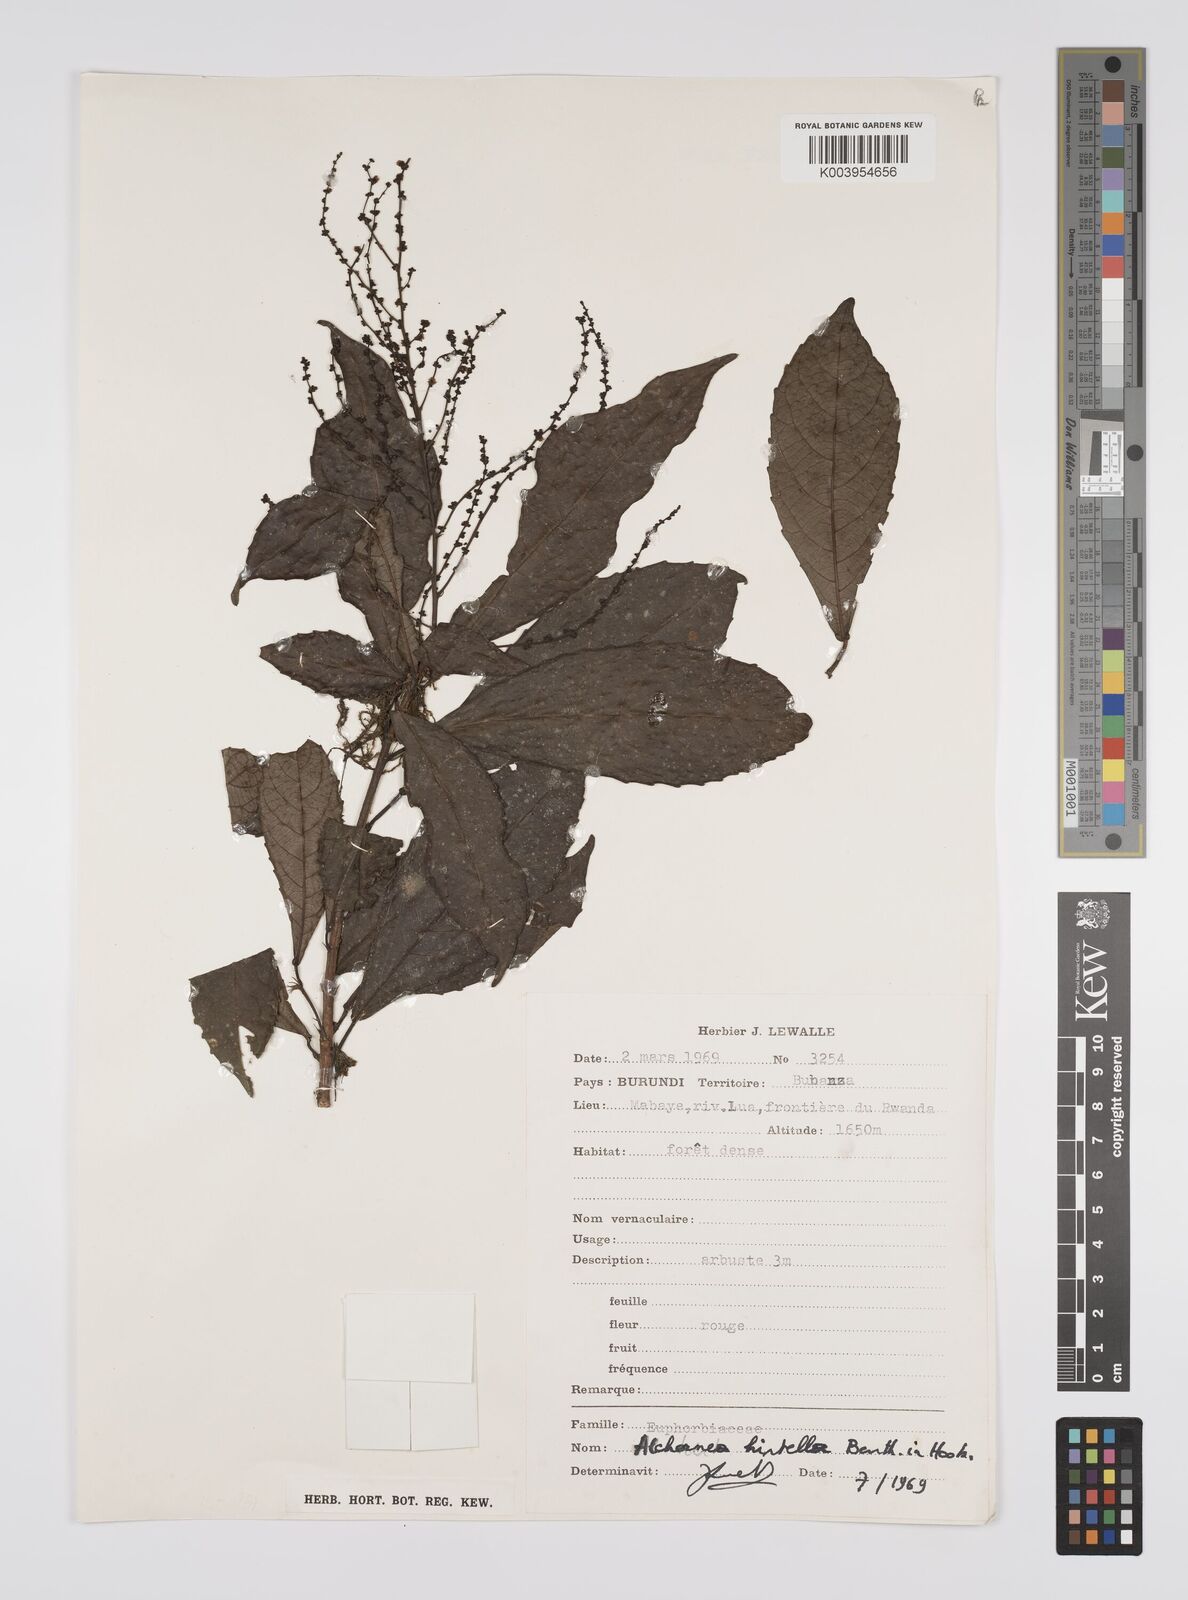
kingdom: Plantae
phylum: Tracheophyta
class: Magnoliopsida
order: Malpighiales
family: Euphorbiaceae
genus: Alchornea
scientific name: Alchornea hirtella
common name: Forest bead-string
